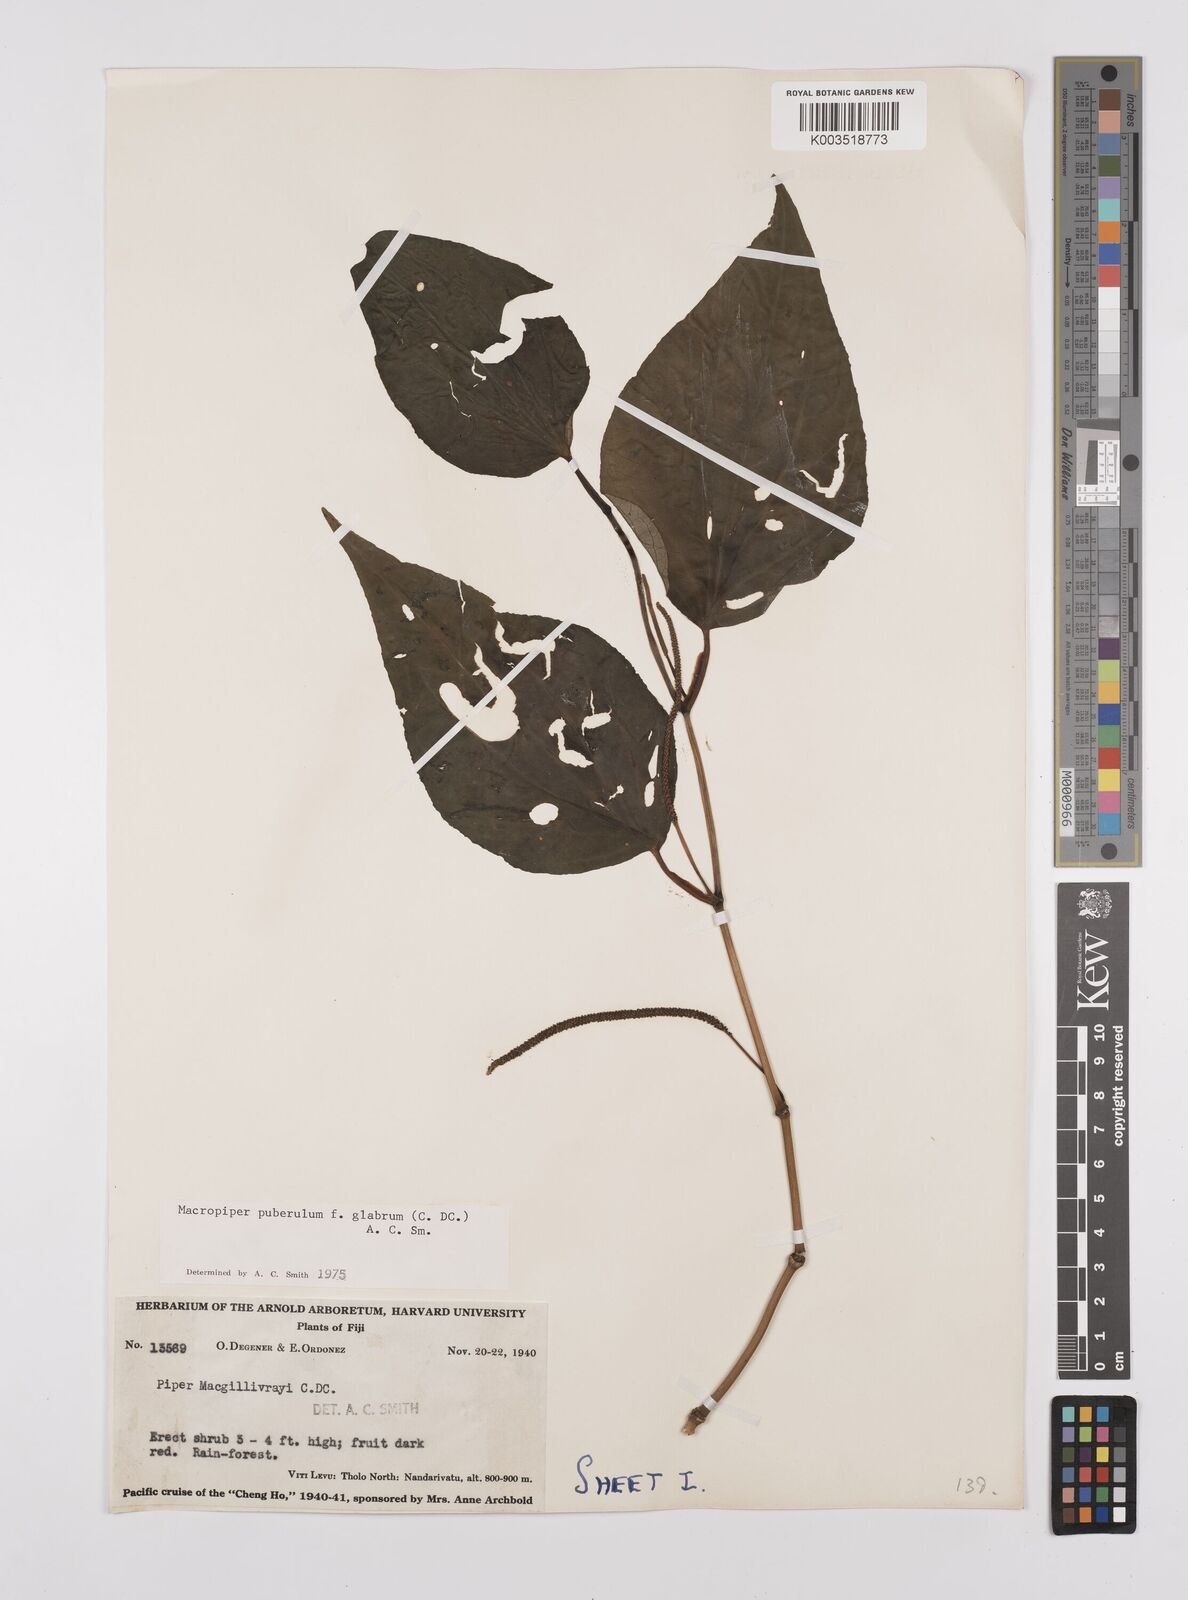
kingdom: Plantae
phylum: Tracheophyta
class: Magnoliopsida
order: Piperales
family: Piperaceae
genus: Macropiper
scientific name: Macropiper puberulum
